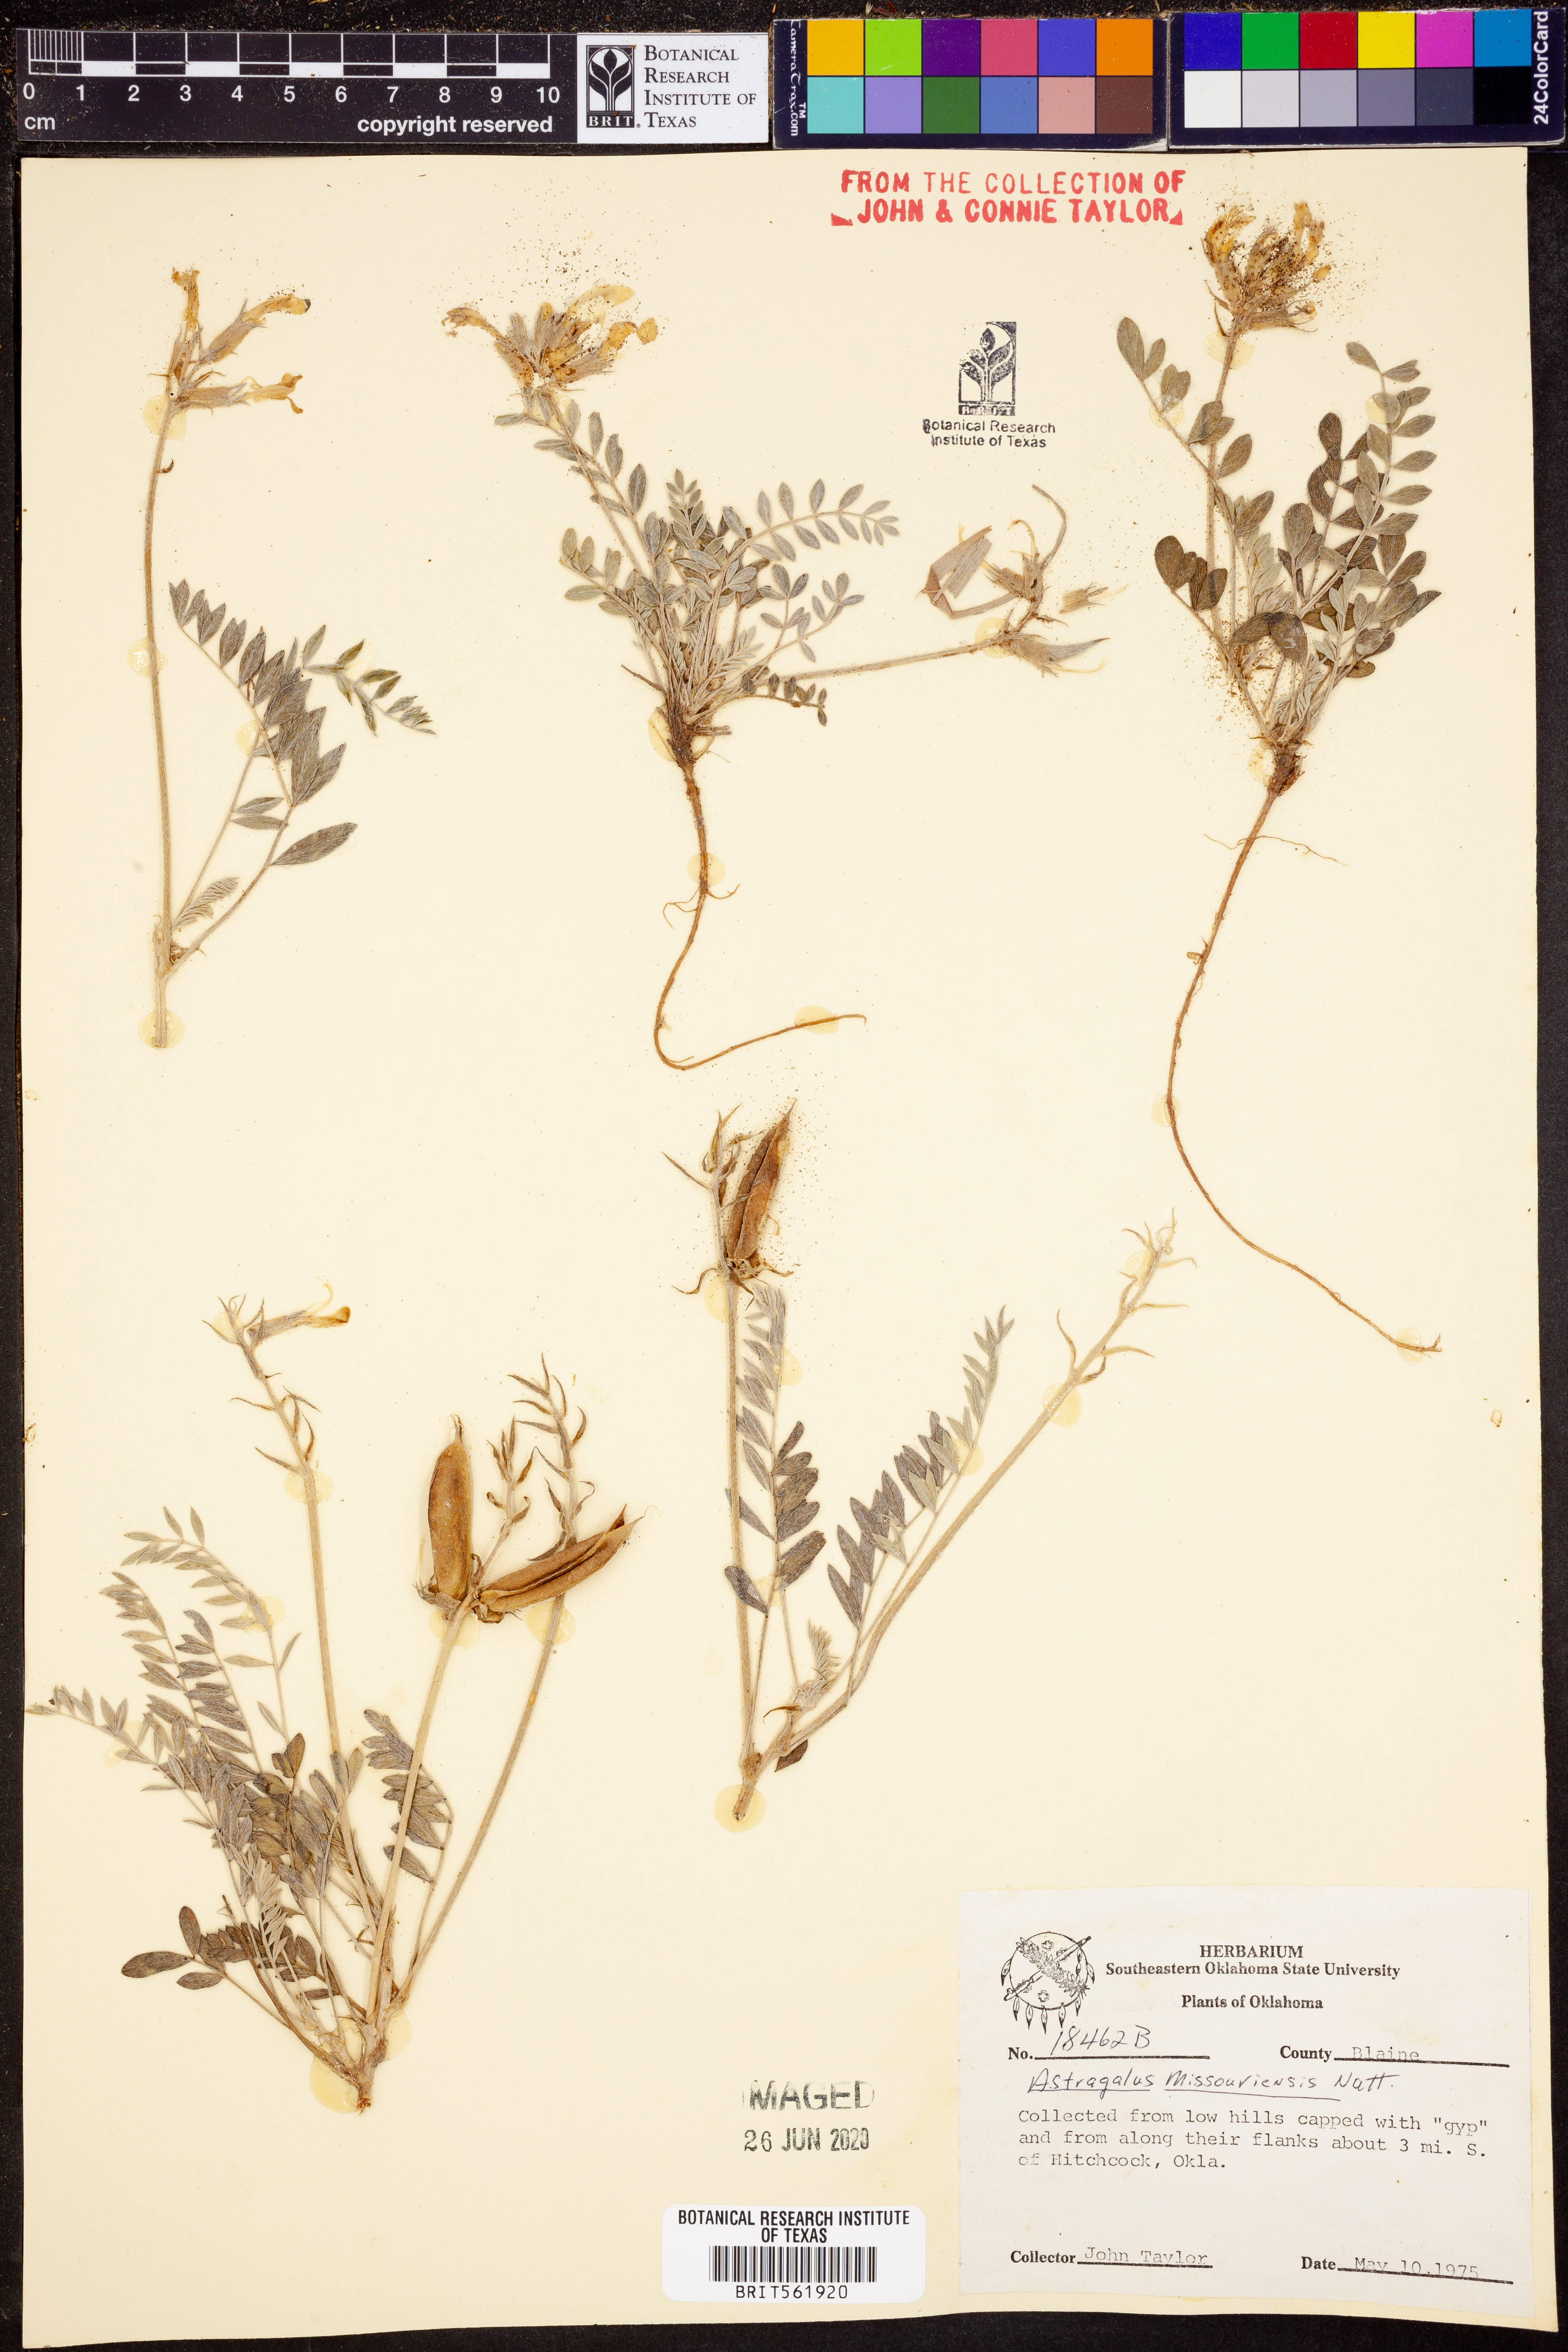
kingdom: Plantae
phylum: Tracheophyta
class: Magnoliopsida
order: Fabales
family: Fabaceae
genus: Astragalus
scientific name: Astragalus missouriensis
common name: Missouri milk-vetch
